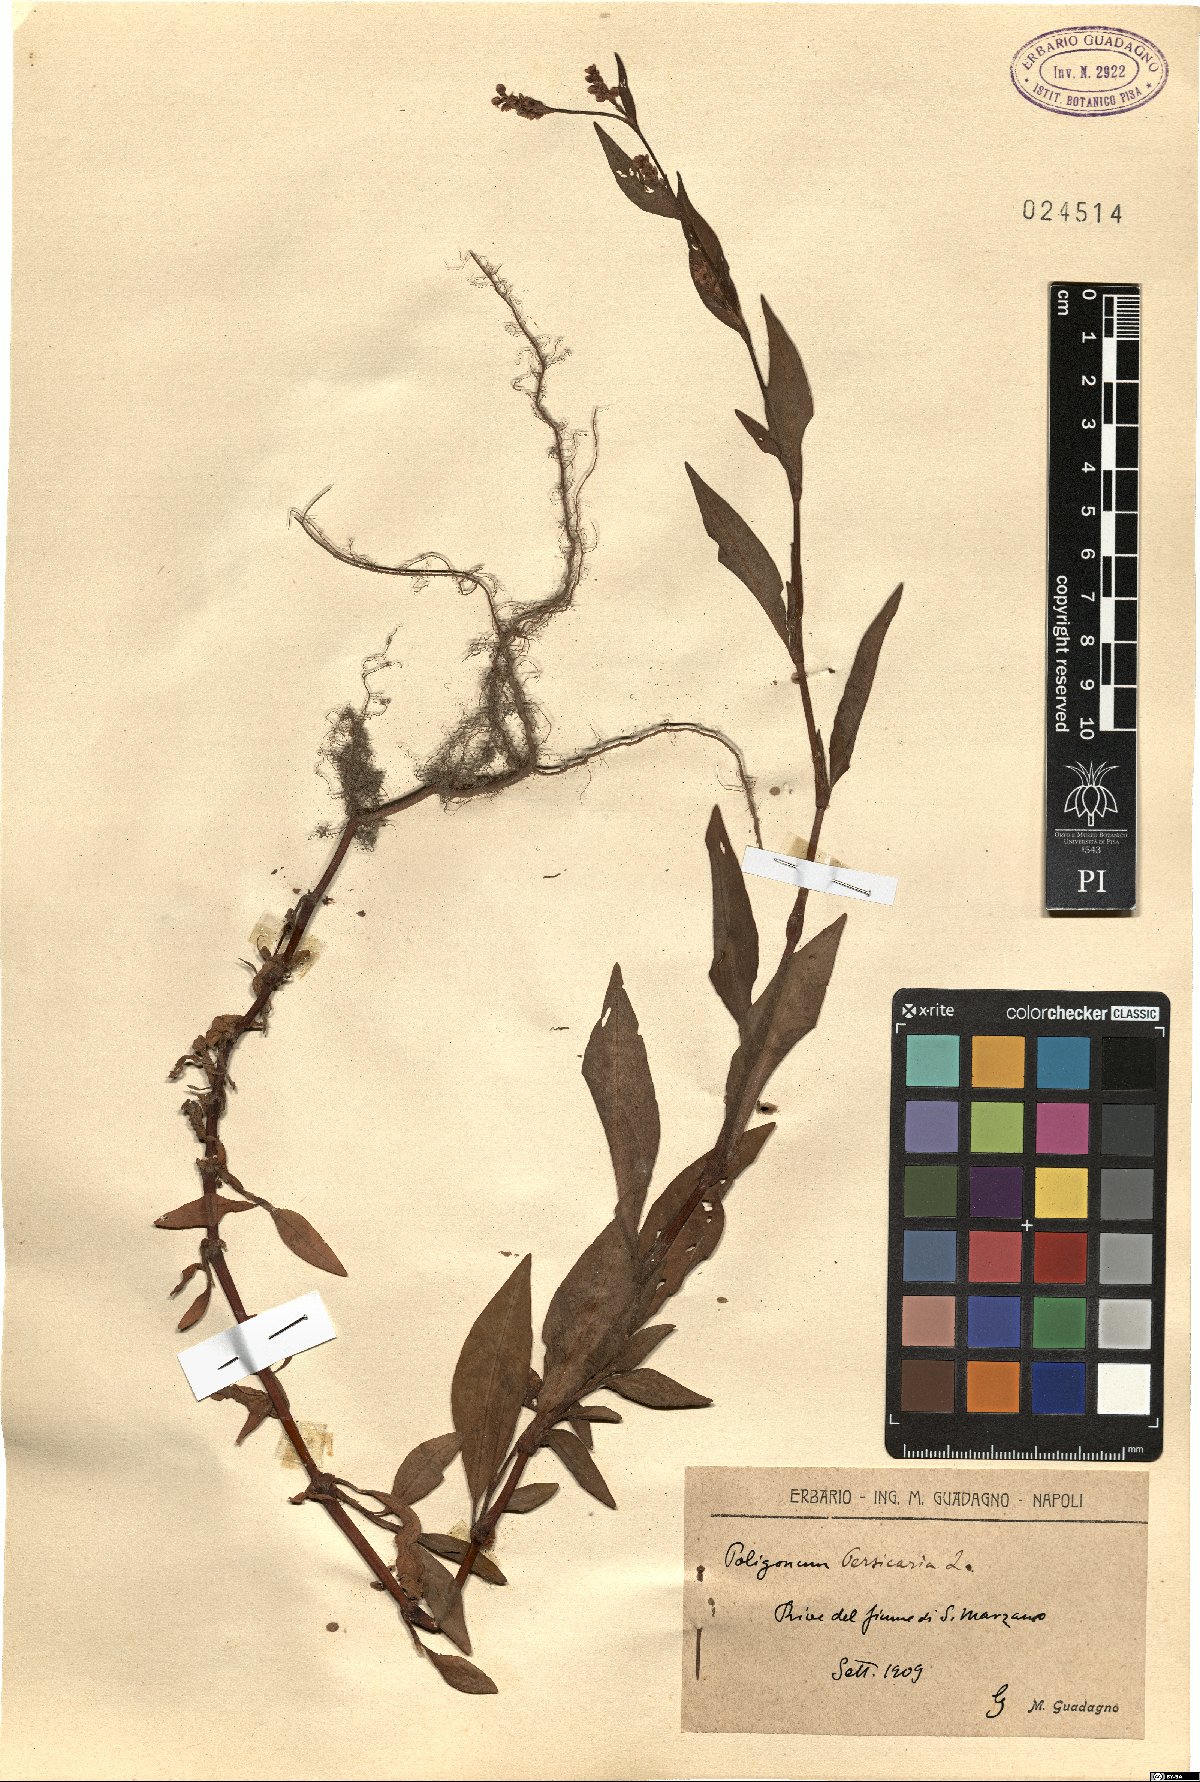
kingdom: Plantae
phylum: Tracheophyta
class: Magnoliopsida
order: Caryophyllales
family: Polygonaceae
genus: Persicaria
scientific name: Persicaria maculosa
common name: Redshank
